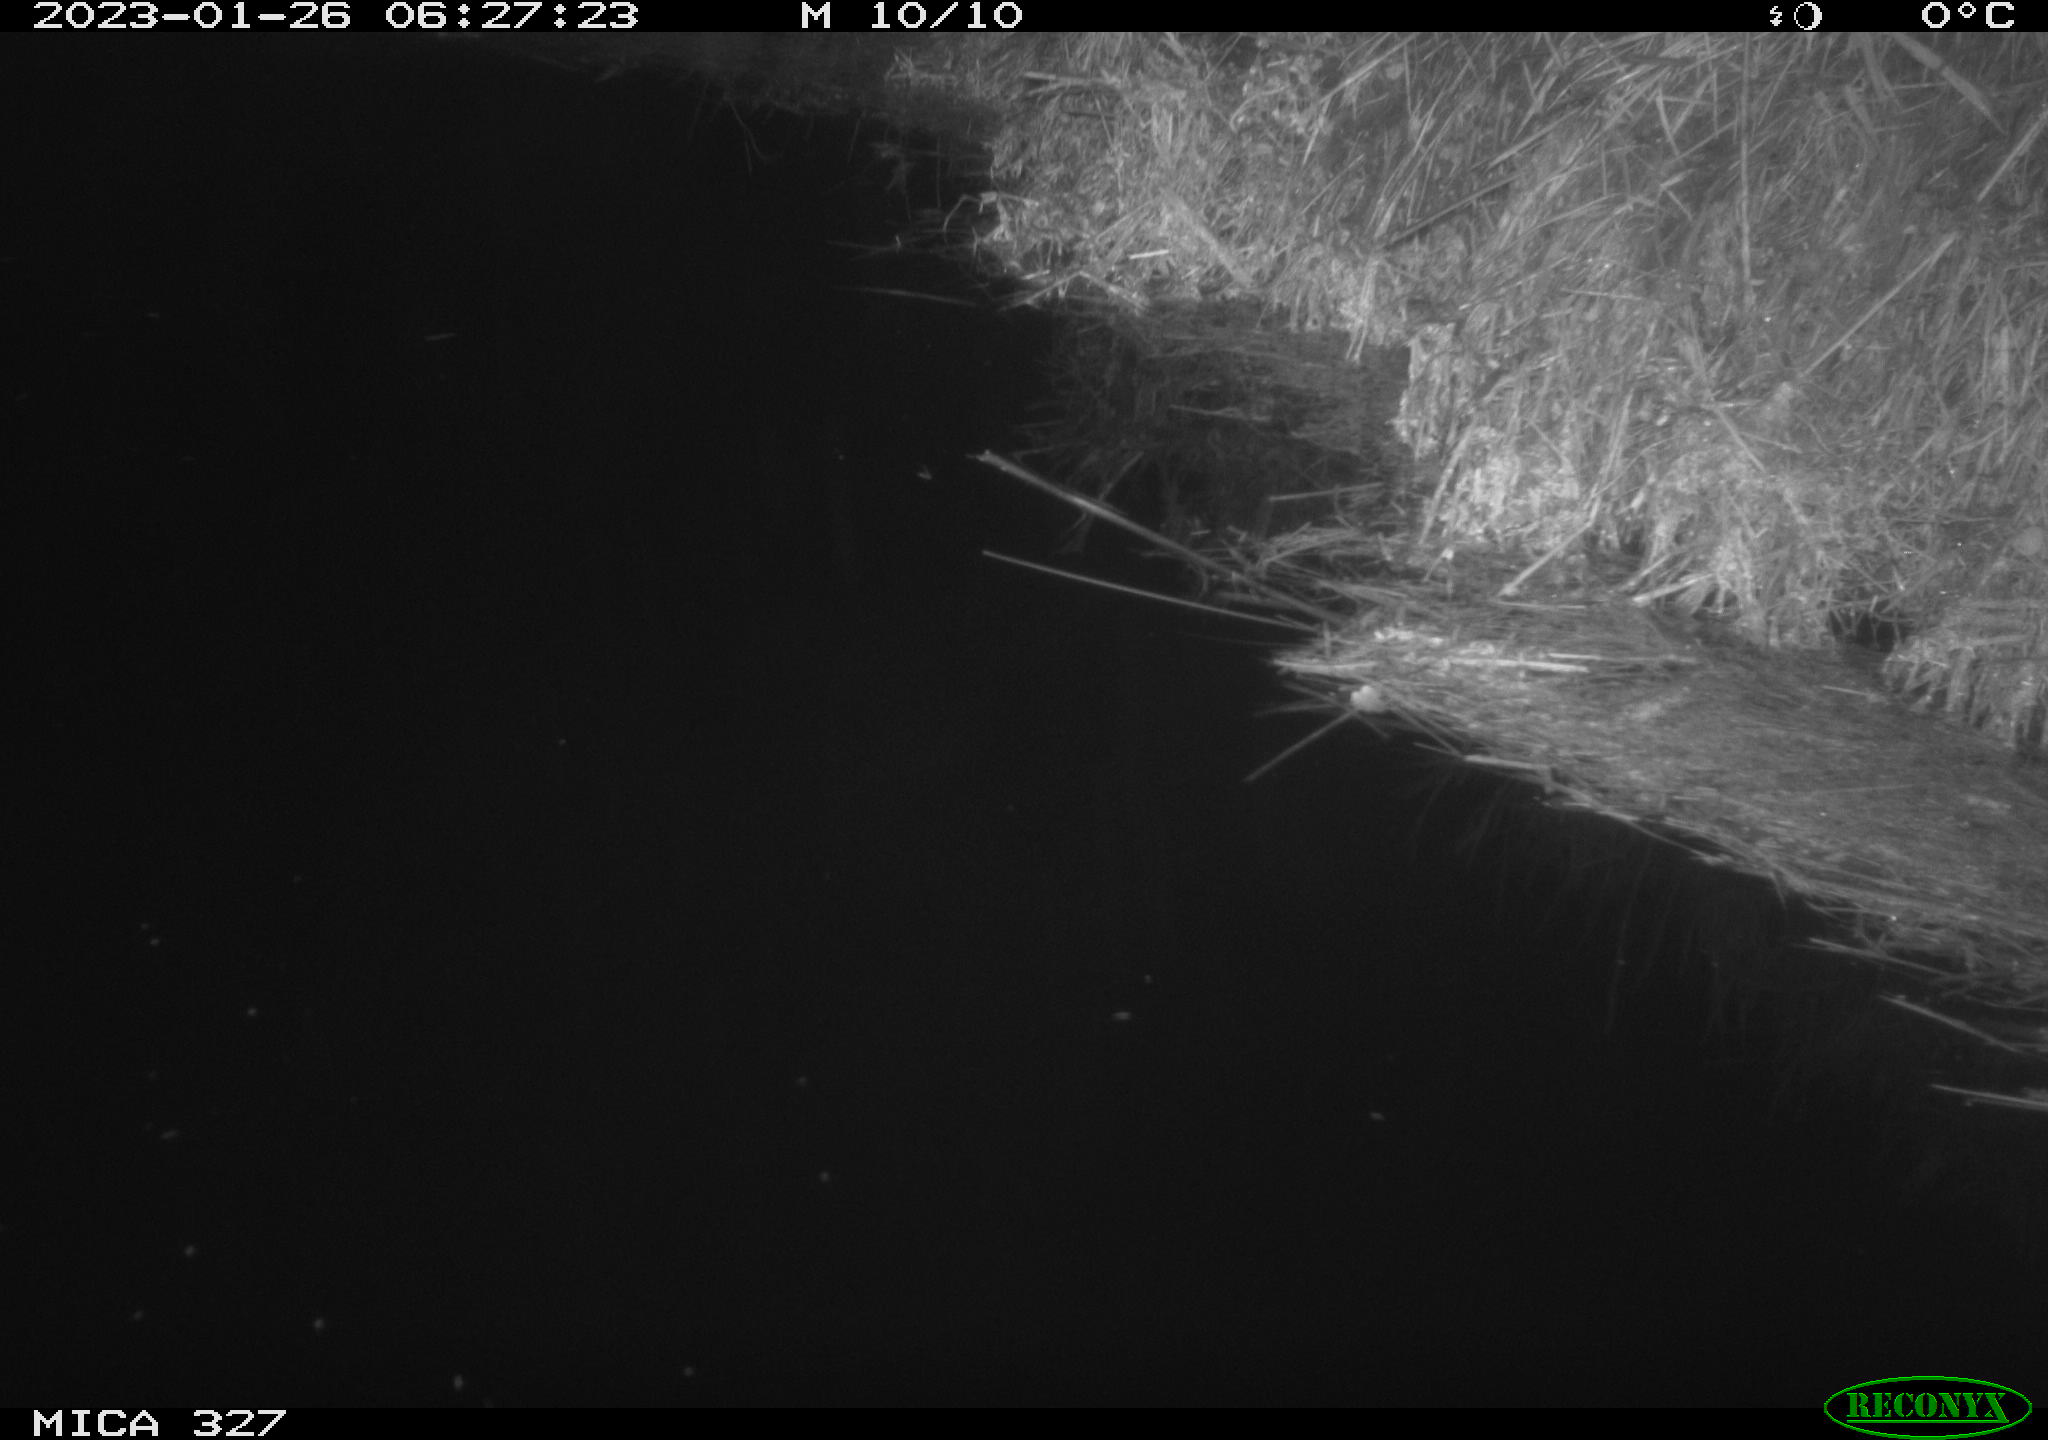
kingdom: Animalia
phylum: Chordata
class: Mammalia
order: Rodentia
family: Cricetidae
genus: Ondatra
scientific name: Ondatra zibethicus
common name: Muskrat
